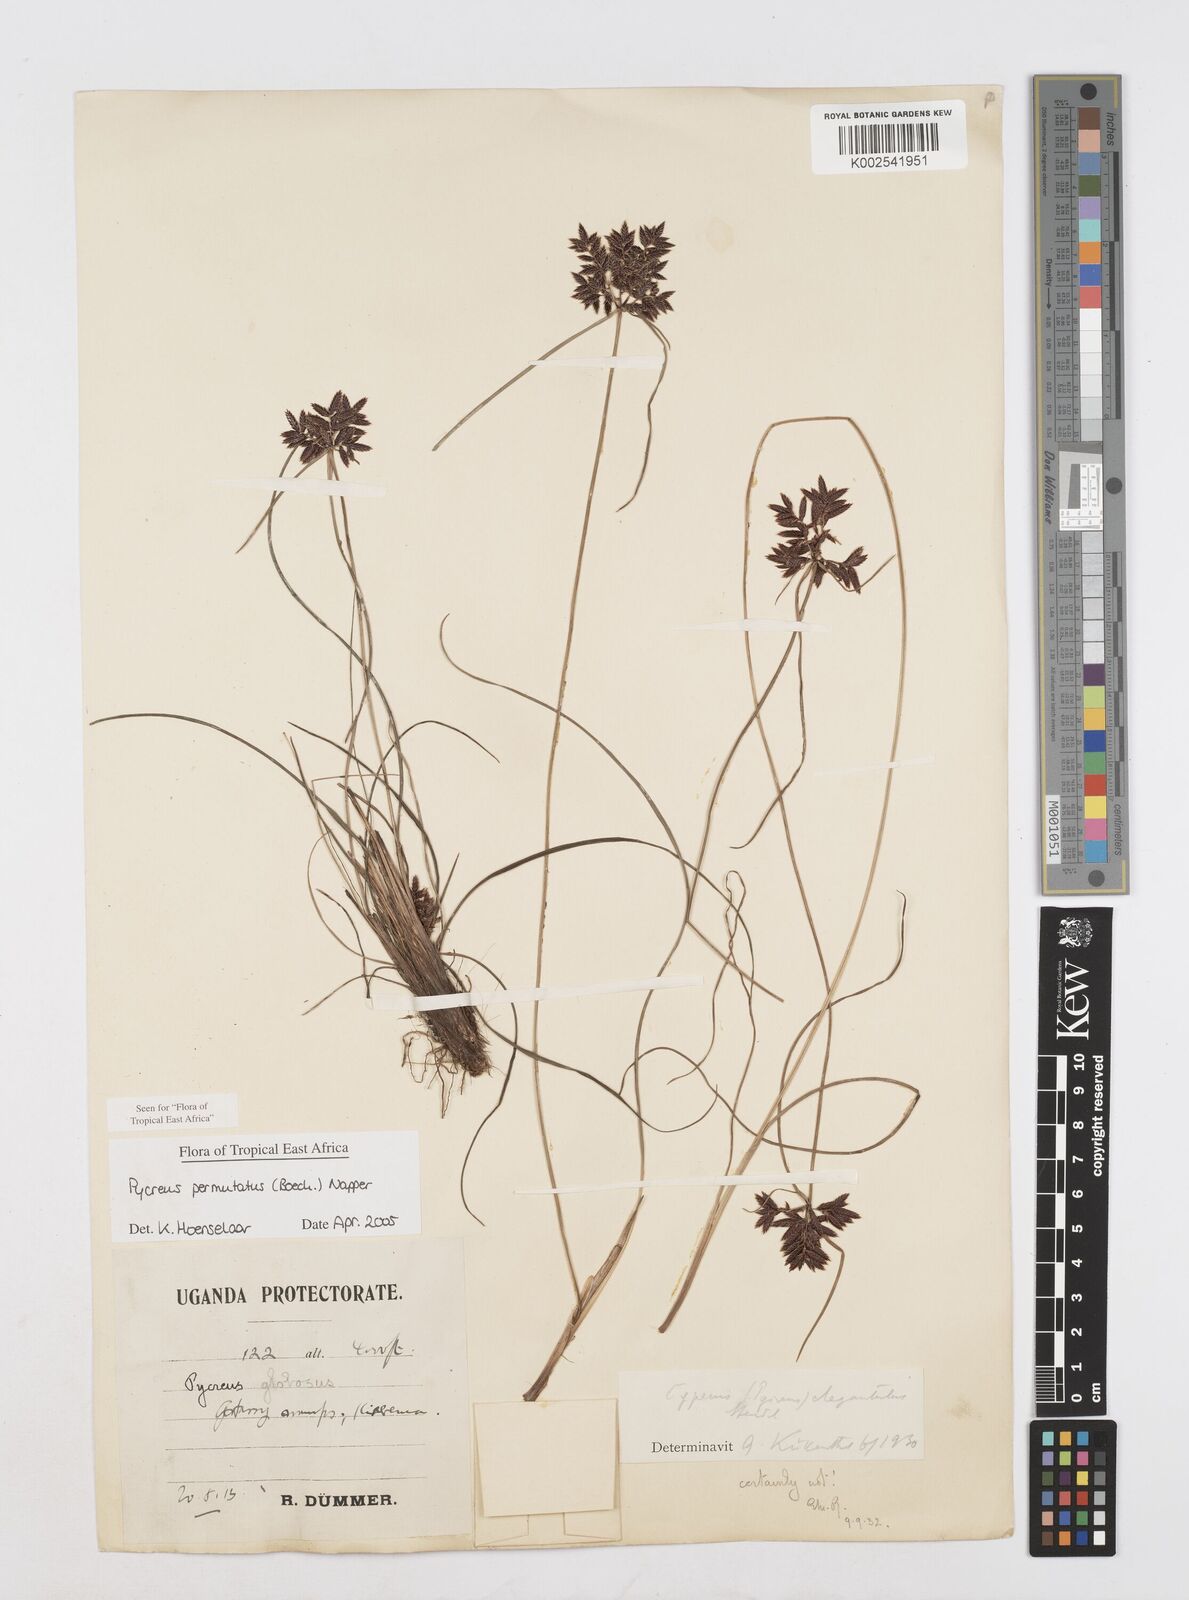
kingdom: Plantae
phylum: Tracheophyta
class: Liliopsida
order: Poales
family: Cyperaceae
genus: Cyperus
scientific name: Cyperus nigricans
